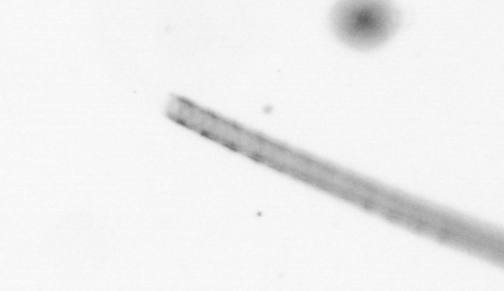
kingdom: Chromista
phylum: Ochrophyta
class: Bacillariophyceae
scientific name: Bacillariophyceae
